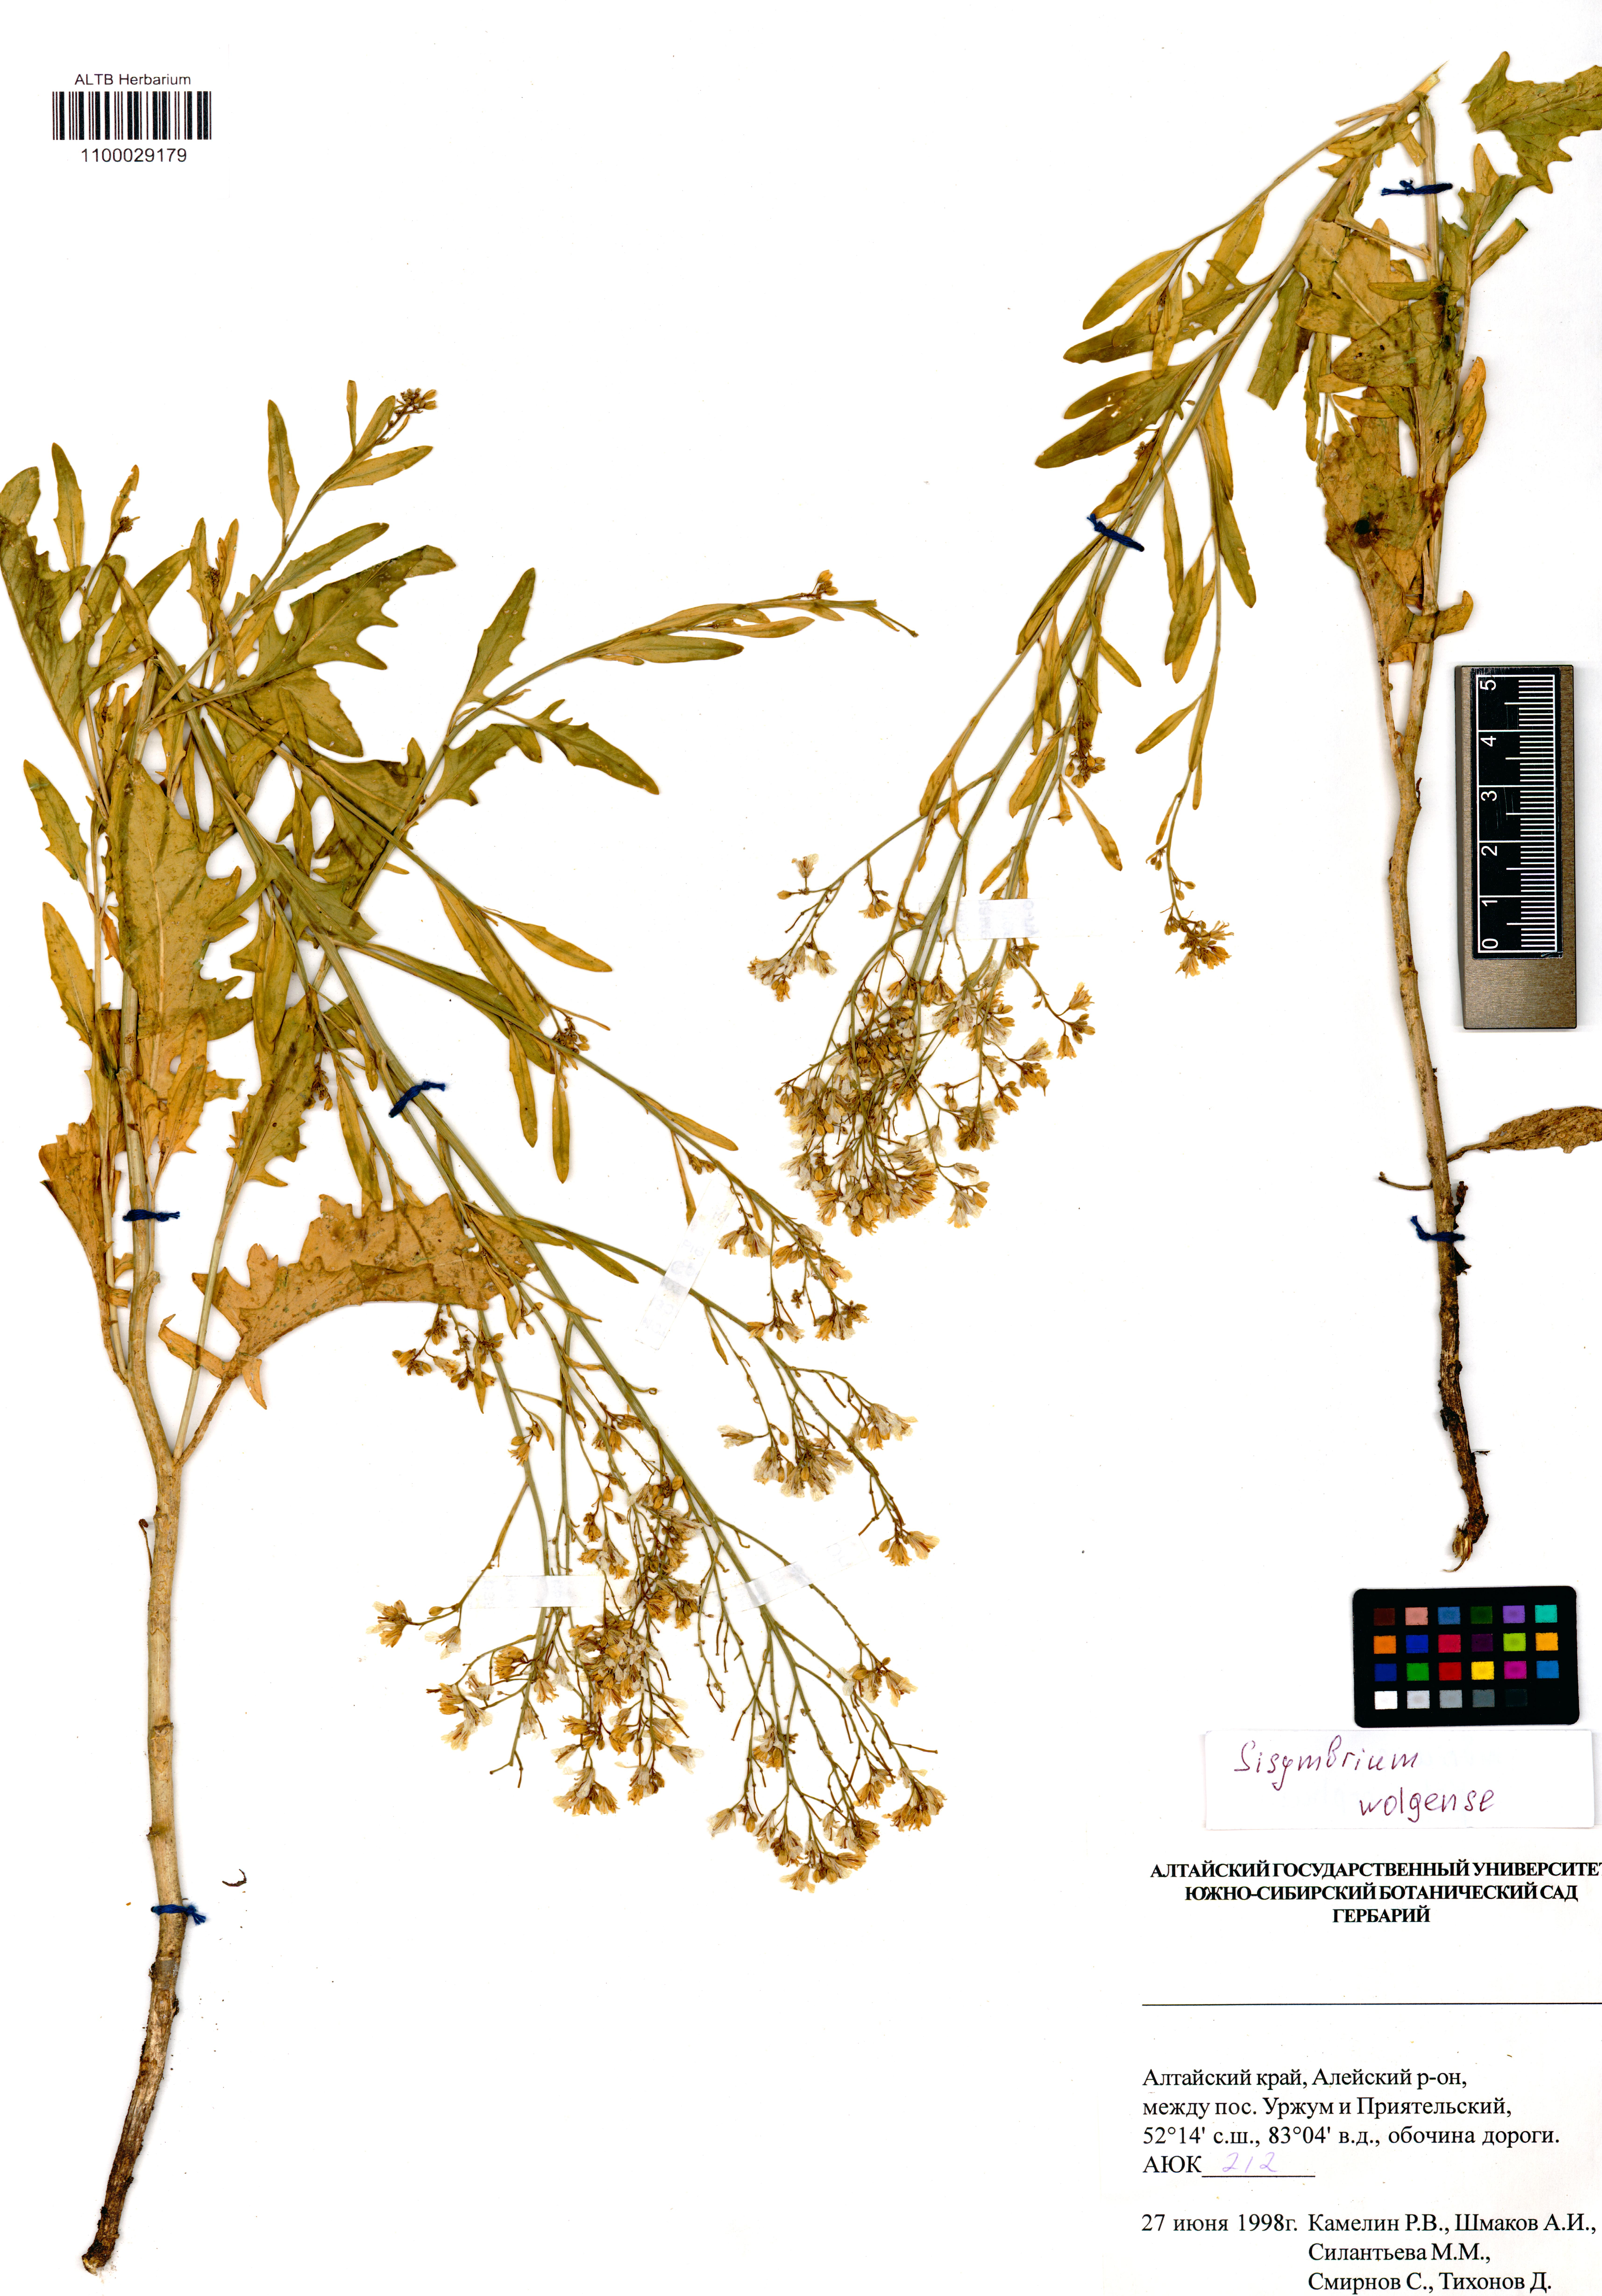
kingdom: Plantae
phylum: Tracheophyta
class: Magnoliopsida
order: Brassicales
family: Brassicaceae
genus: Sisymbrium
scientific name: Sisymbrium volgense
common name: Russian mustard
